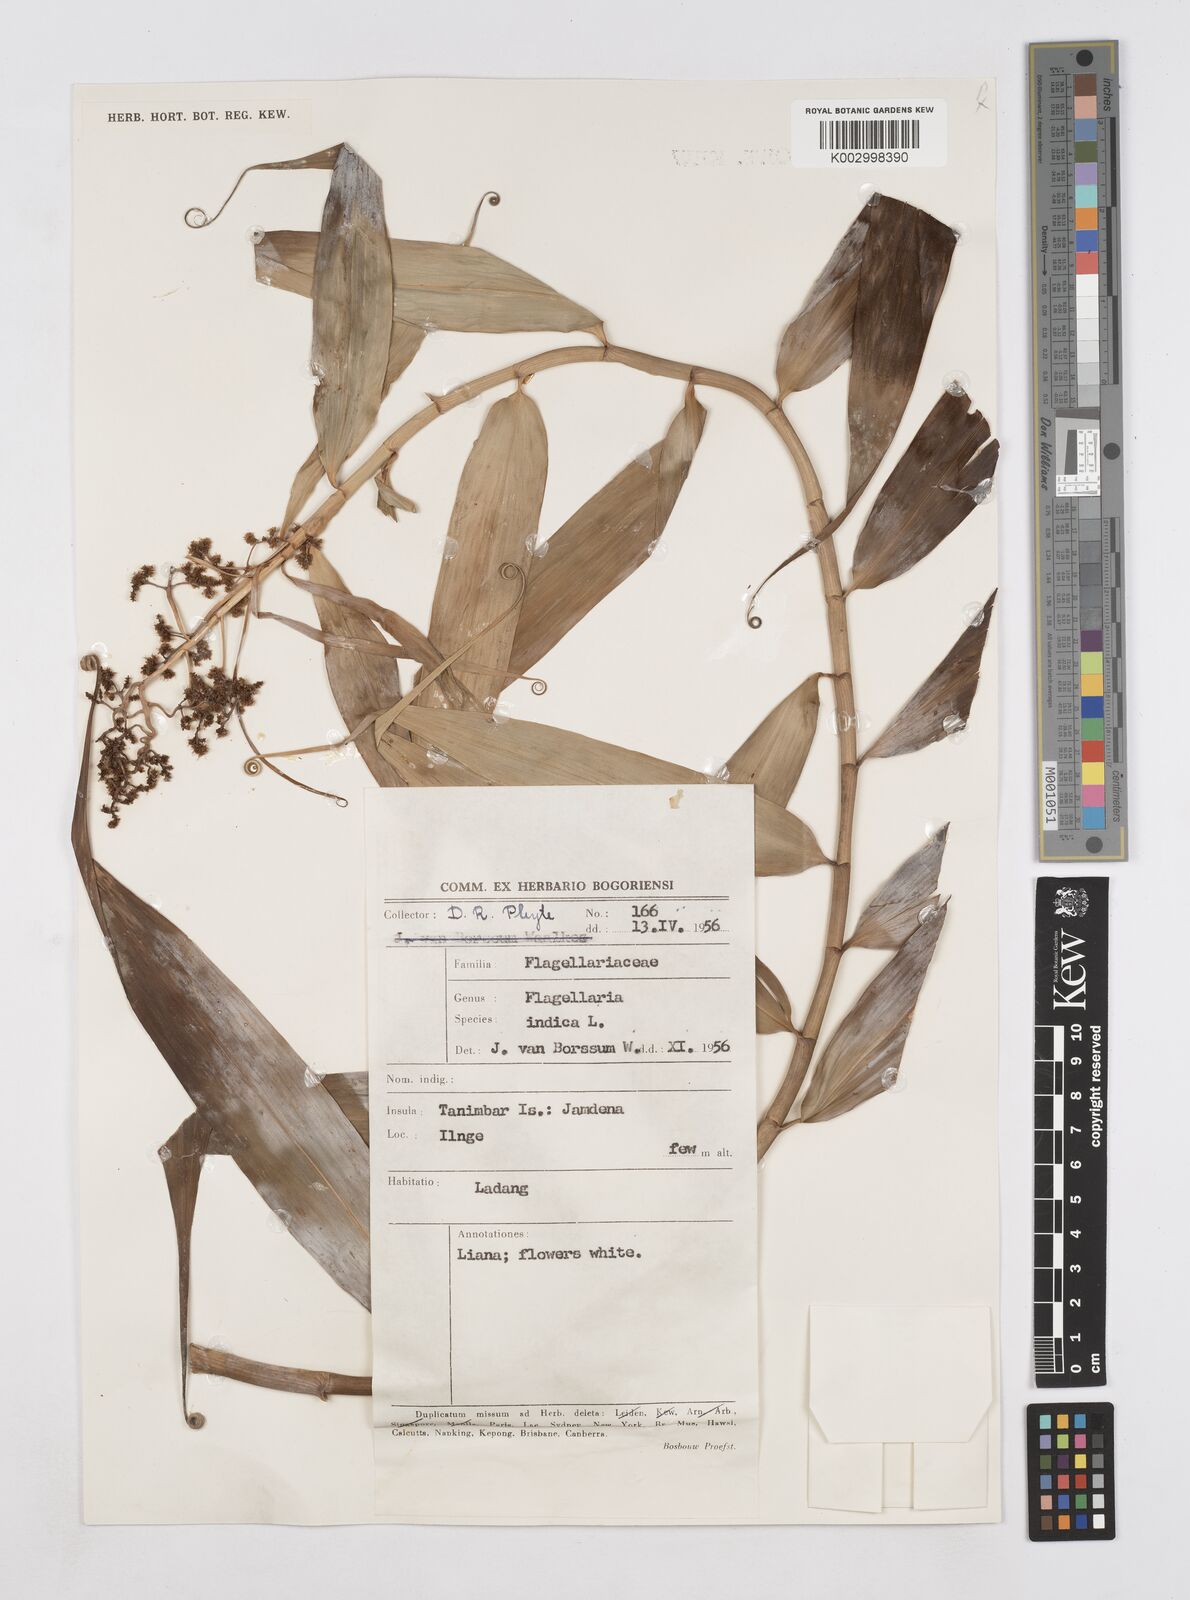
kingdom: Plantae
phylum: Tracheophyta
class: Liliopsida
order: Poales
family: Flagellariaceae
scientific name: Flagellariaceae
